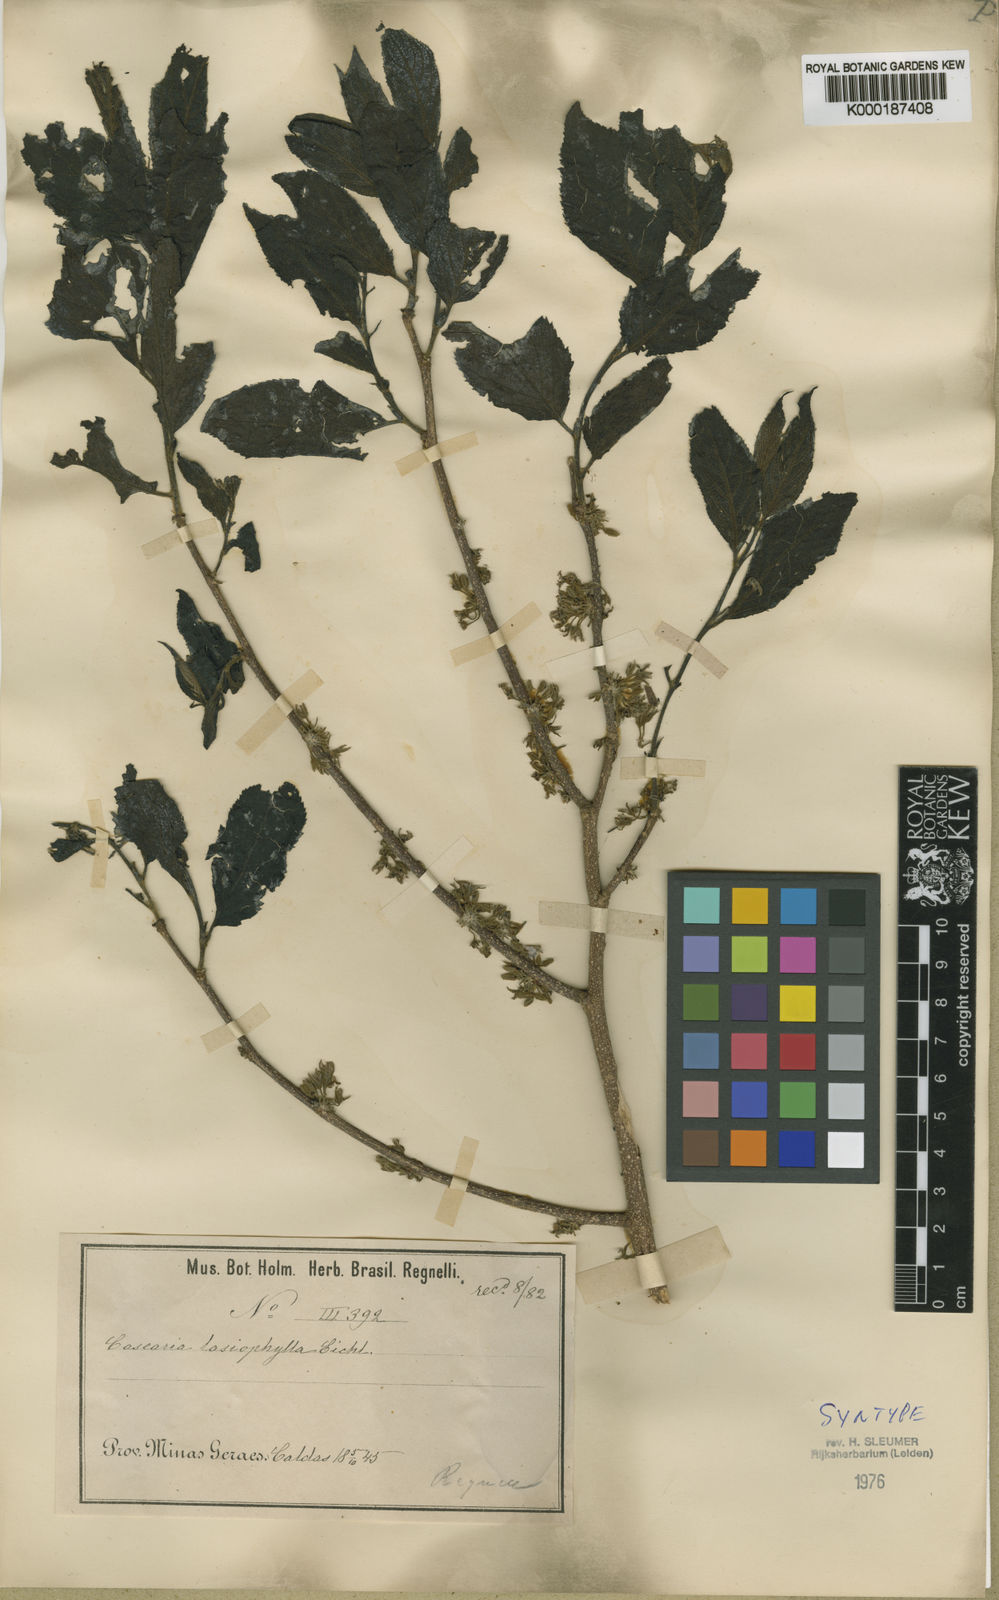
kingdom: Plantae
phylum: Tracheophyta
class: Magnoliopsida
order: Malpighiales
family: Salicaceae
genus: Casearia
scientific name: Casearia lasiophylla
